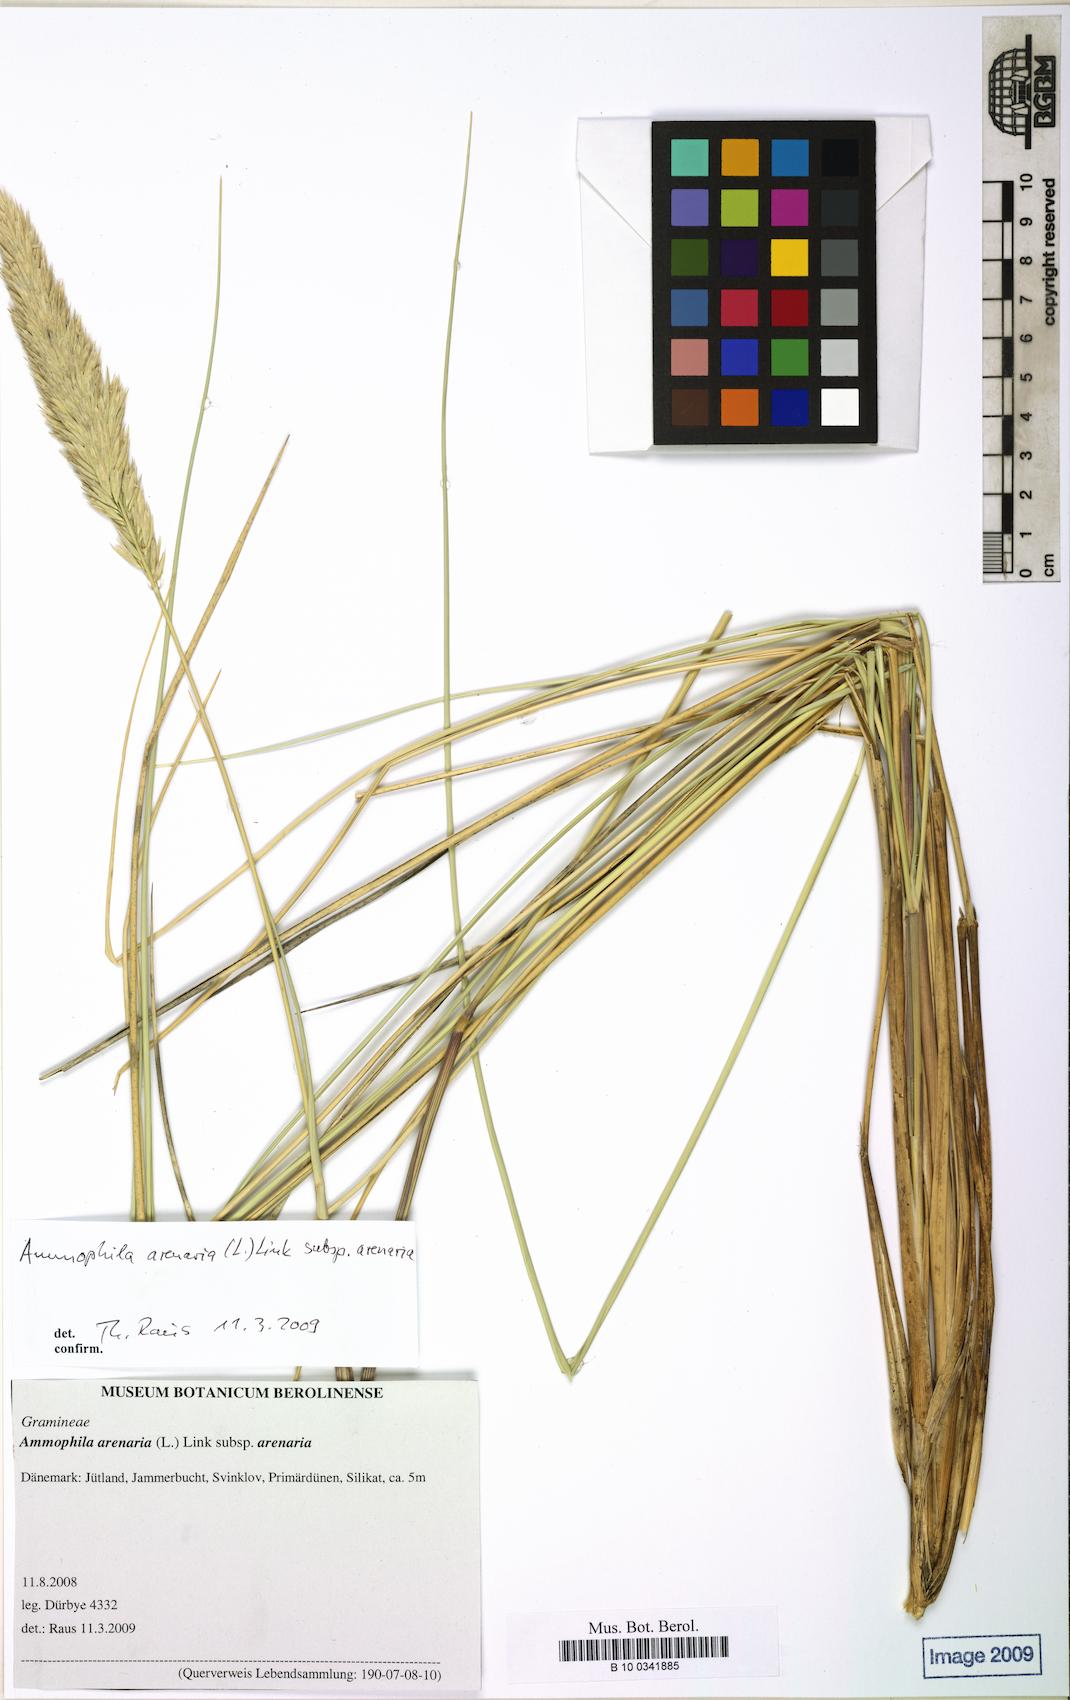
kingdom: Plantae
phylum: Tracheophyta
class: Liliopsida
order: Poales
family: Poaceae
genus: Calamagrostis
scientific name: Calamagrostis arenaria
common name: European beachgrass
